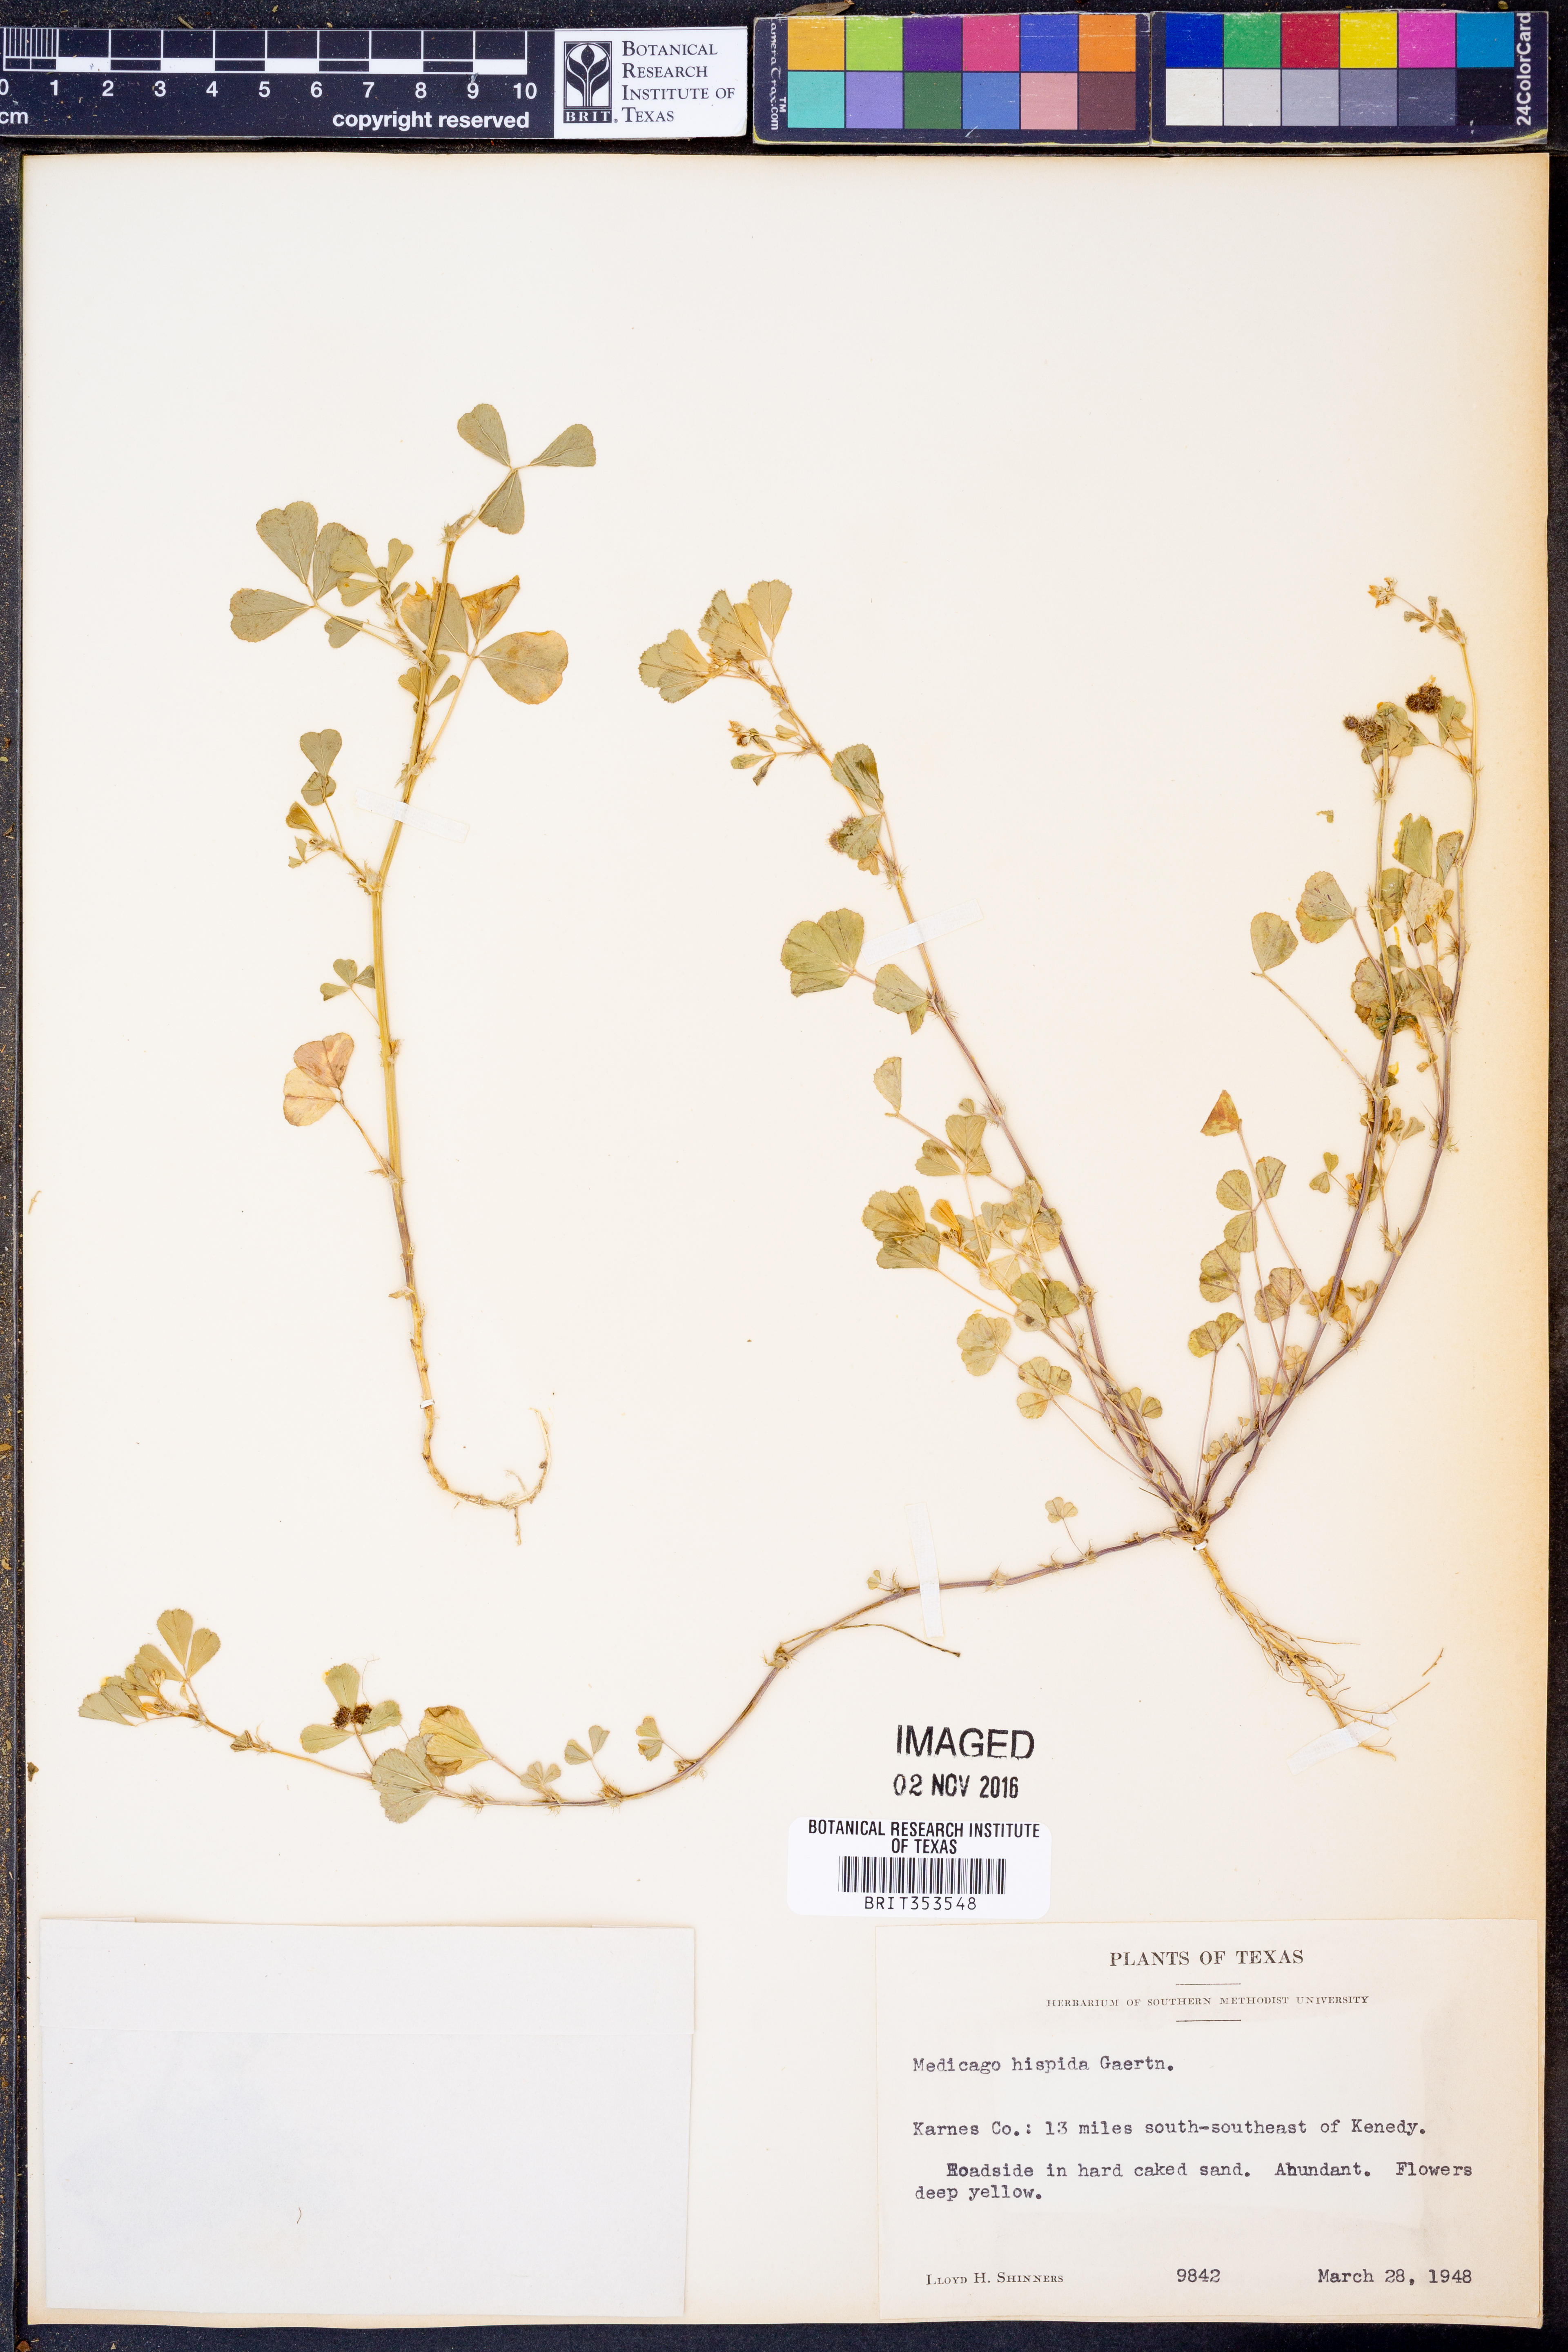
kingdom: Plantae
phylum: Tracheophyta
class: Magnoliopsida
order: Fabales
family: Fabaceae
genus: Medicago
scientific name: Medicago polymorpha
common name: Burclover
